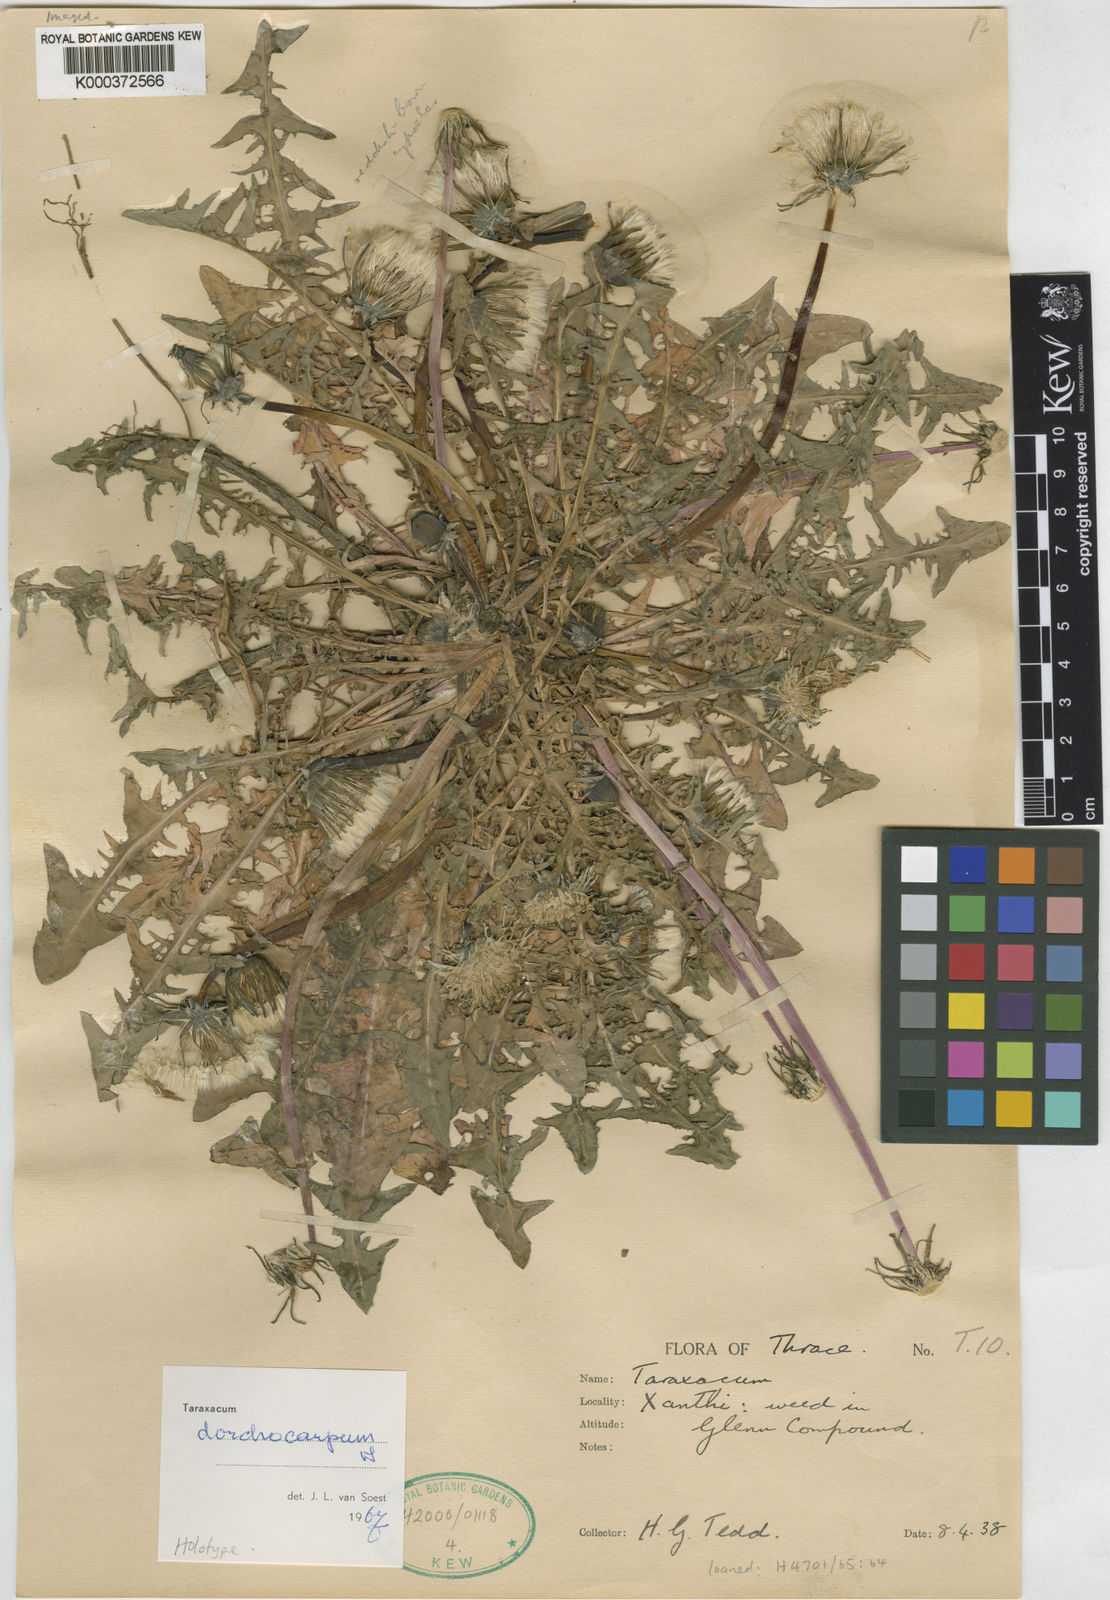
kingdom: Plantae
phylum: Tracheophyta
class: Magnoliopsida
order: Asterales
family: Asteraceae
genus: Taraxacum
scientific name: Taraxacum dorchocarpum
